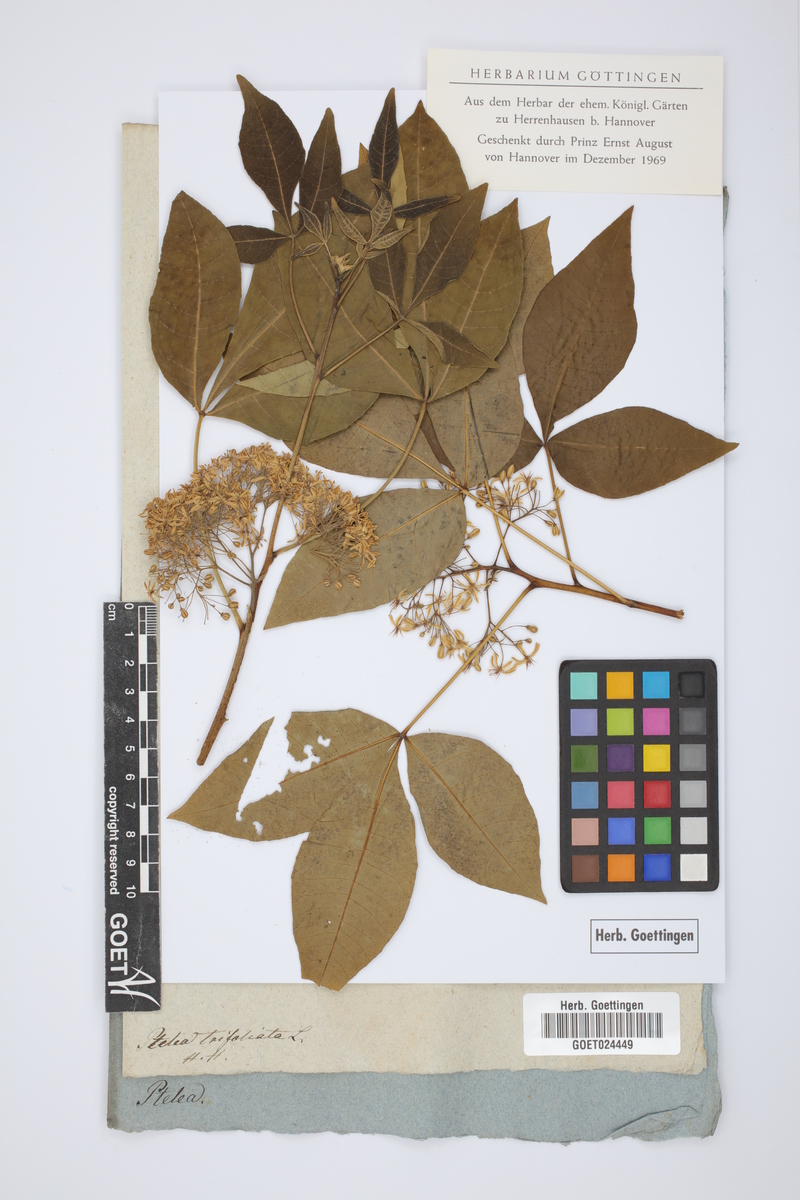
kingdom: Plantae
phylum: Tracheophyta
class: Magnoliopsida
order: Sapindales
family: Rutaceae
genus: Ptelea
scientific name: Ptelea trifoliata
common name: Common hop-tree
